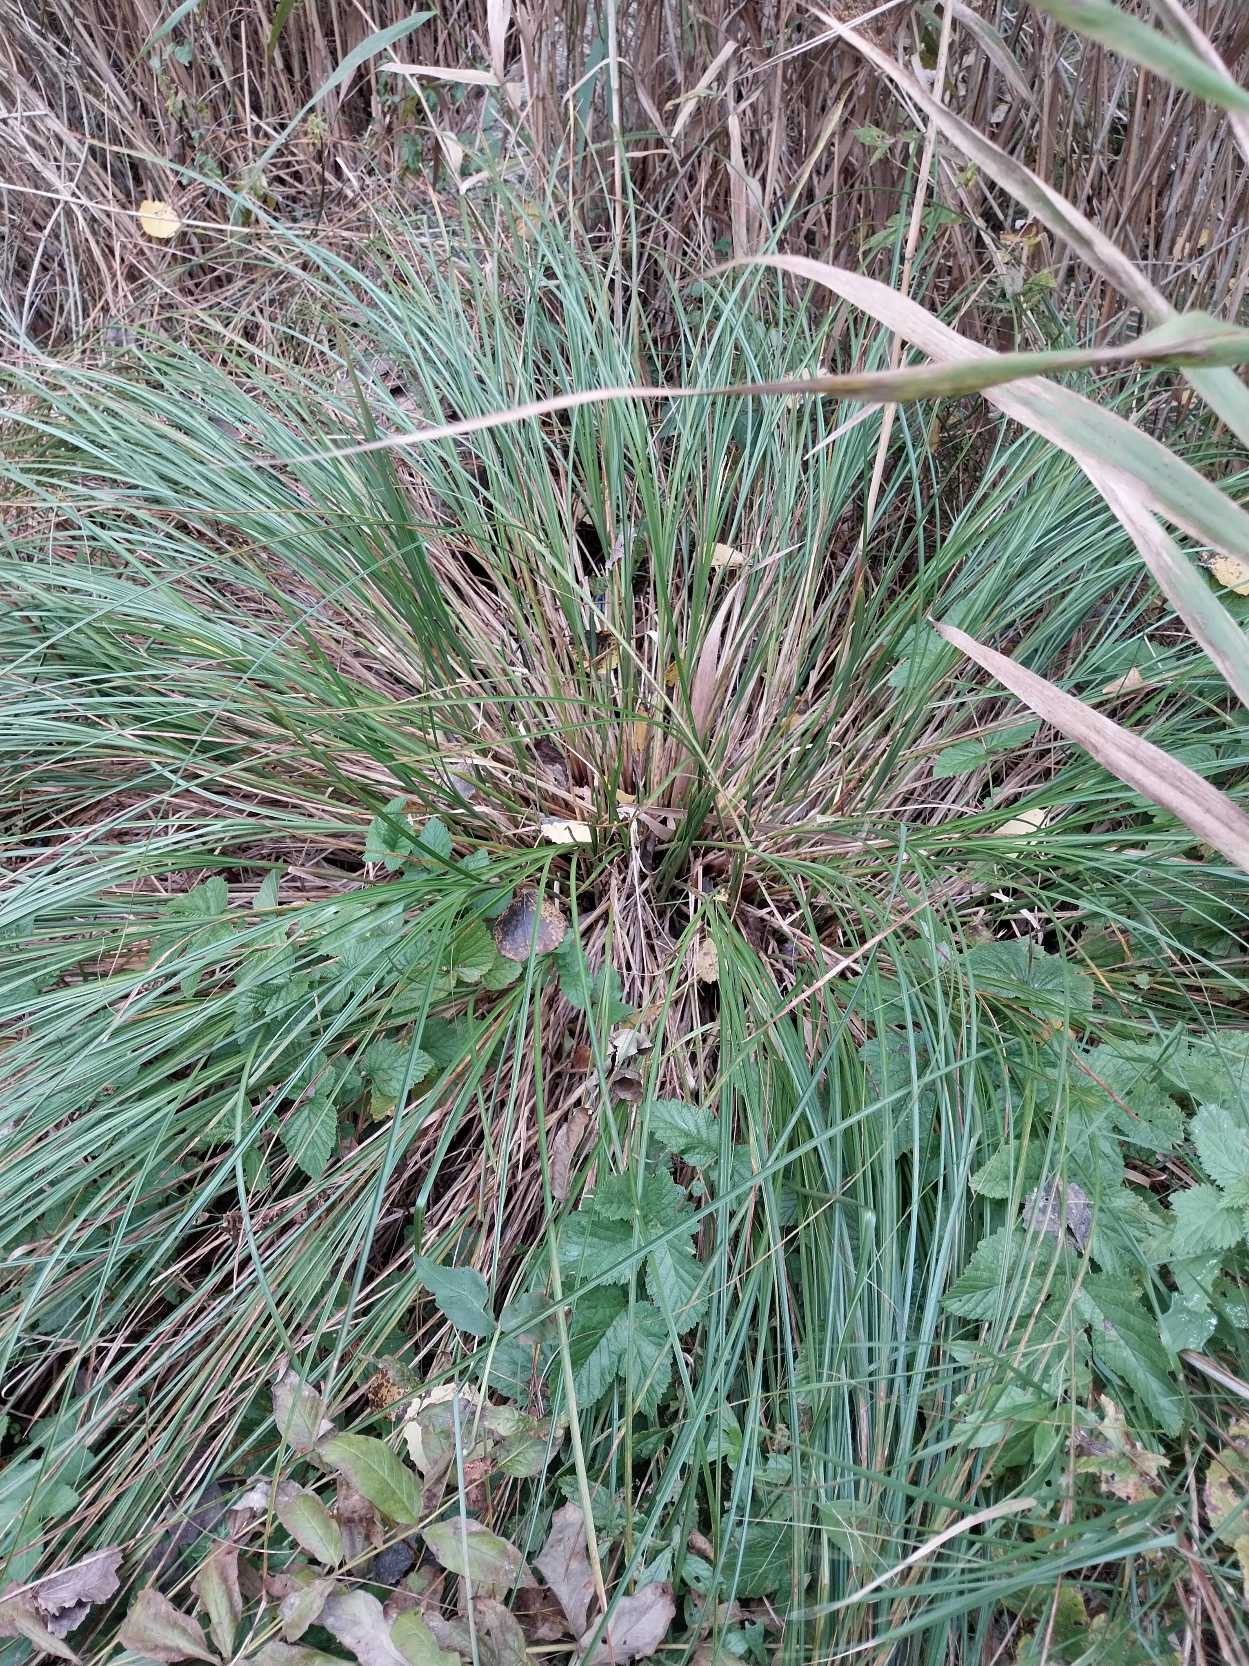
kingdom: Plantae
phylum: Tracheophyta
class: Liliopsida
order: Poales
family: Cyperaceae
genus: Carex
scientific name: Carex paniculata
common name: Top-star
